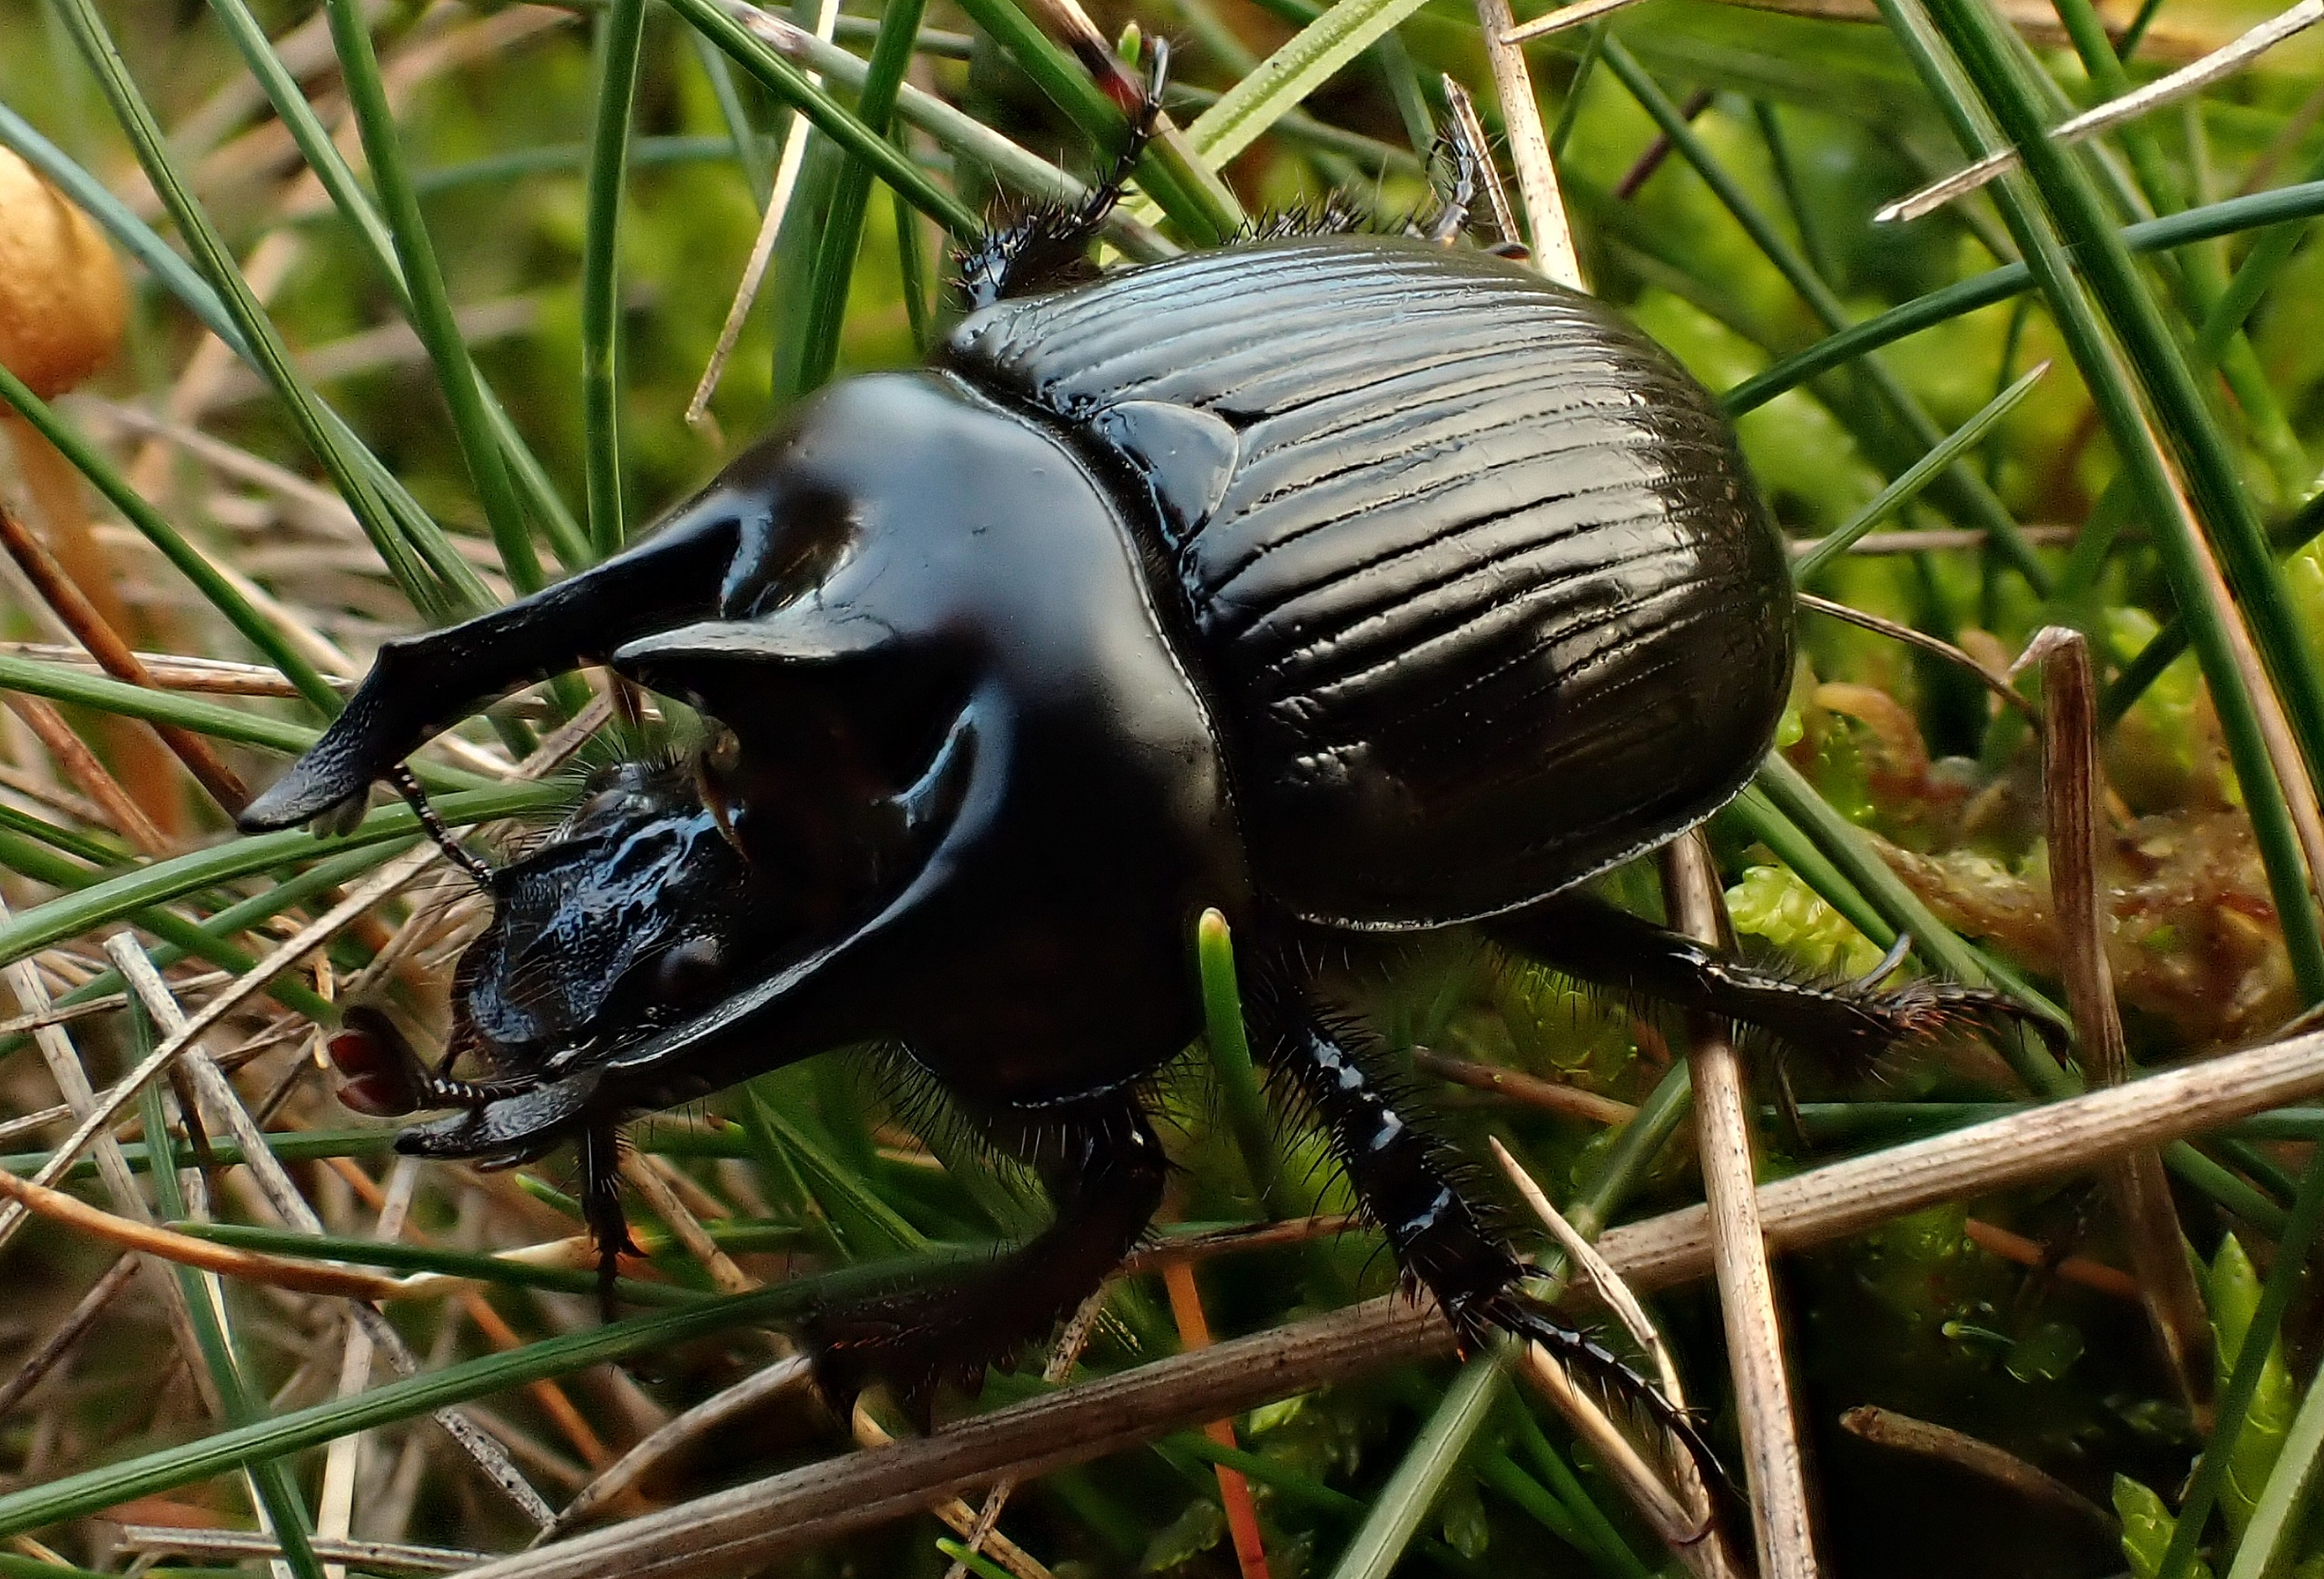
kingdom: Animalia
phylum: Arthropoda
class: Insecta
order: Coleoptera
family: Geotrupidae
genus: Typhaeus
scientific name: Typhaeus typhoeus
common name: Trehornet skarnbasse
